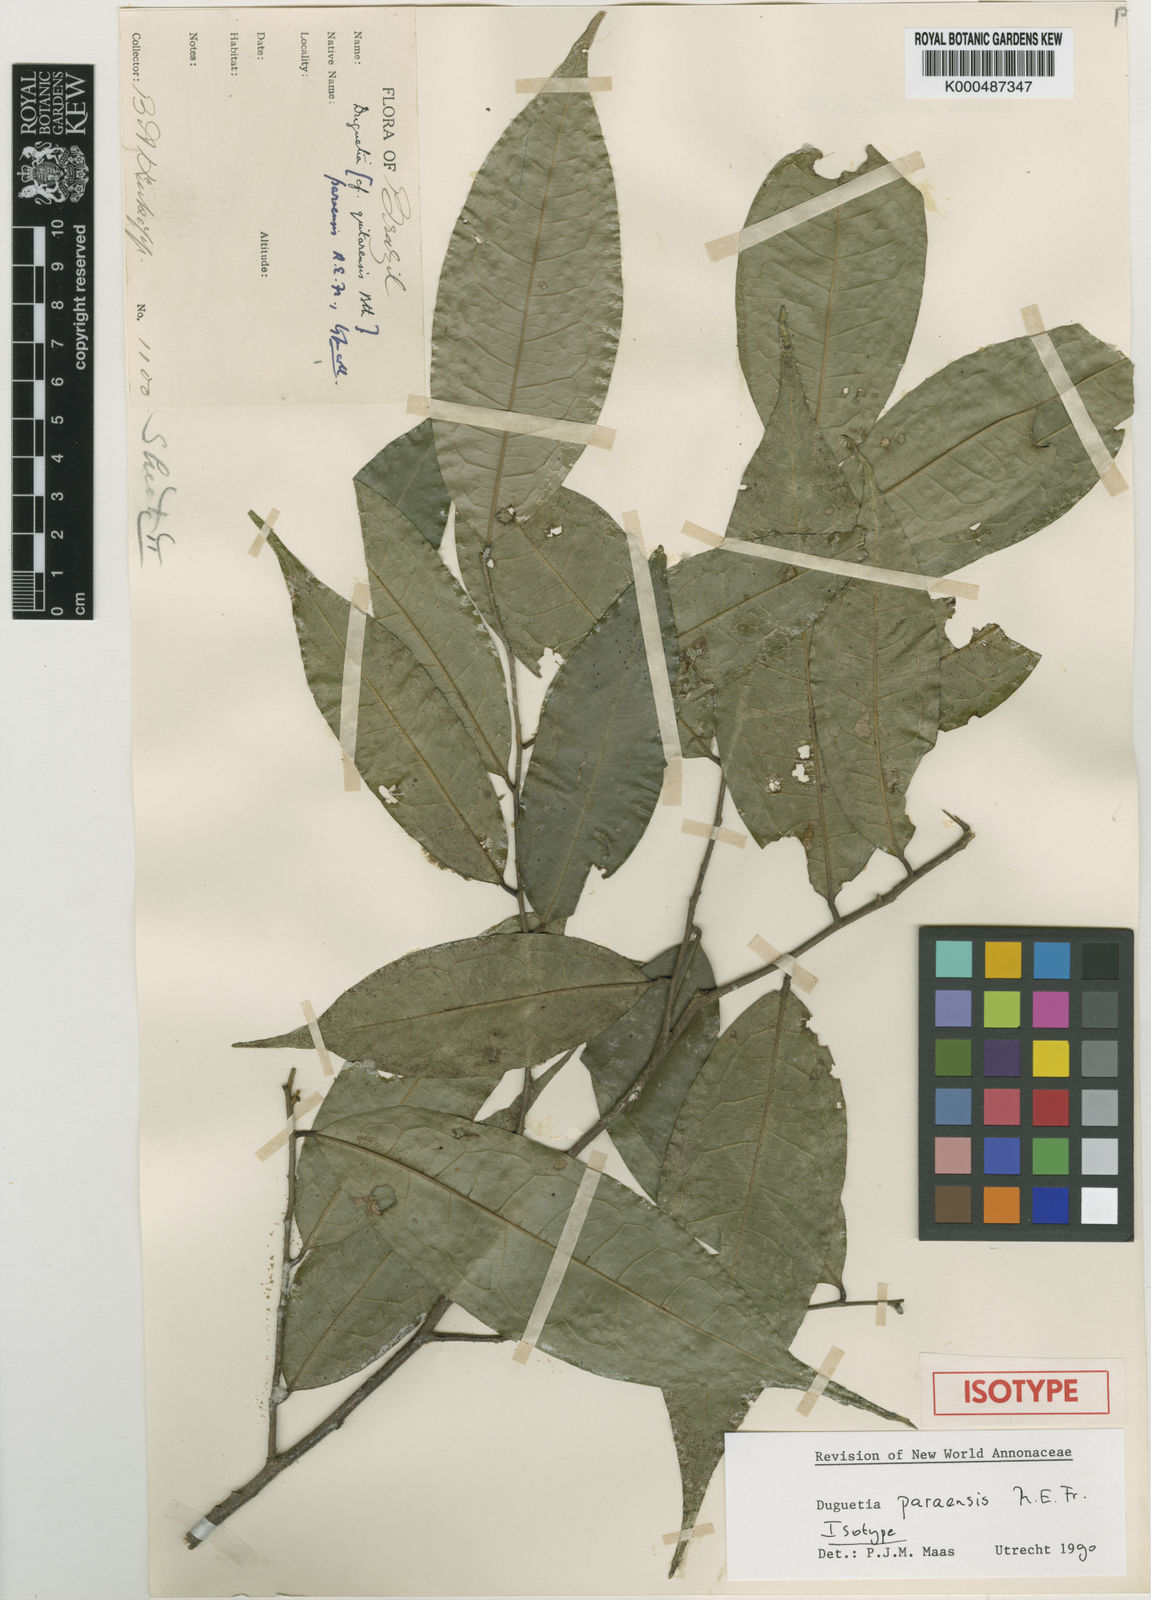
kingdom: Plantae
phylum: Tracheophyta
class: Magnoliopsida
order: Magnoliales
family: Annonaceae
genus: Duguetia
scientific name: Duguetia paraensis
